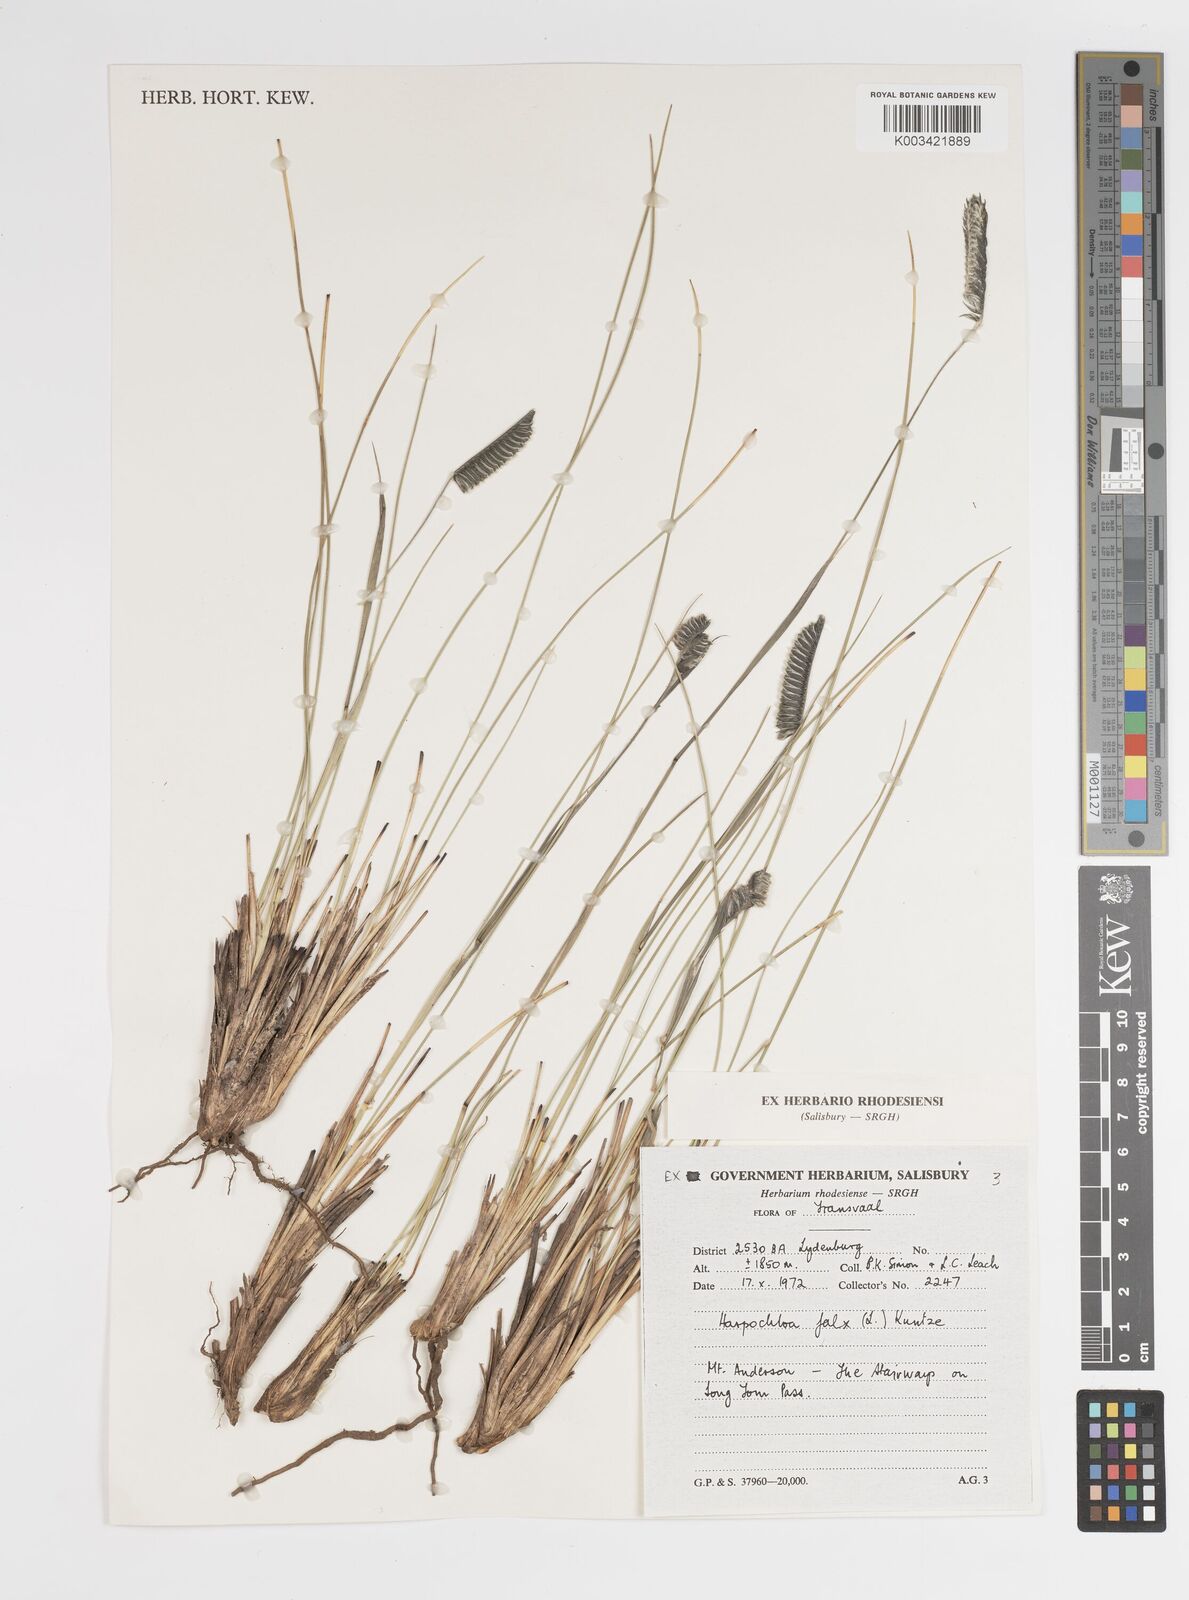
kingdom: Plantae
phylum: Tracheophyta
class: Liliopsida
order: Poales
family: Poaceae
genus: Harpochloa
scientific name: Harpochloa falx
